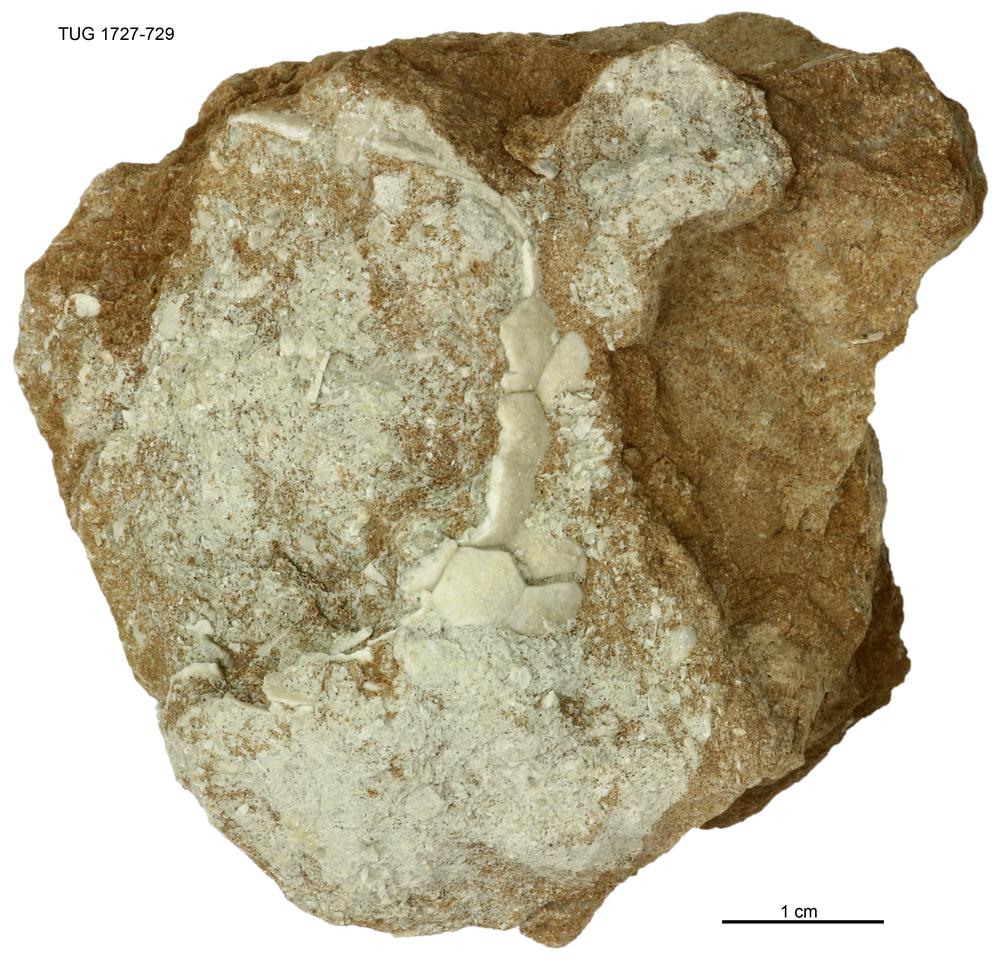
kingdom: Animalia
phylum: Echinodermata
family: Heckerocrinidae
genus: Heckerocrinus
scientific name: Heckerocrinus
